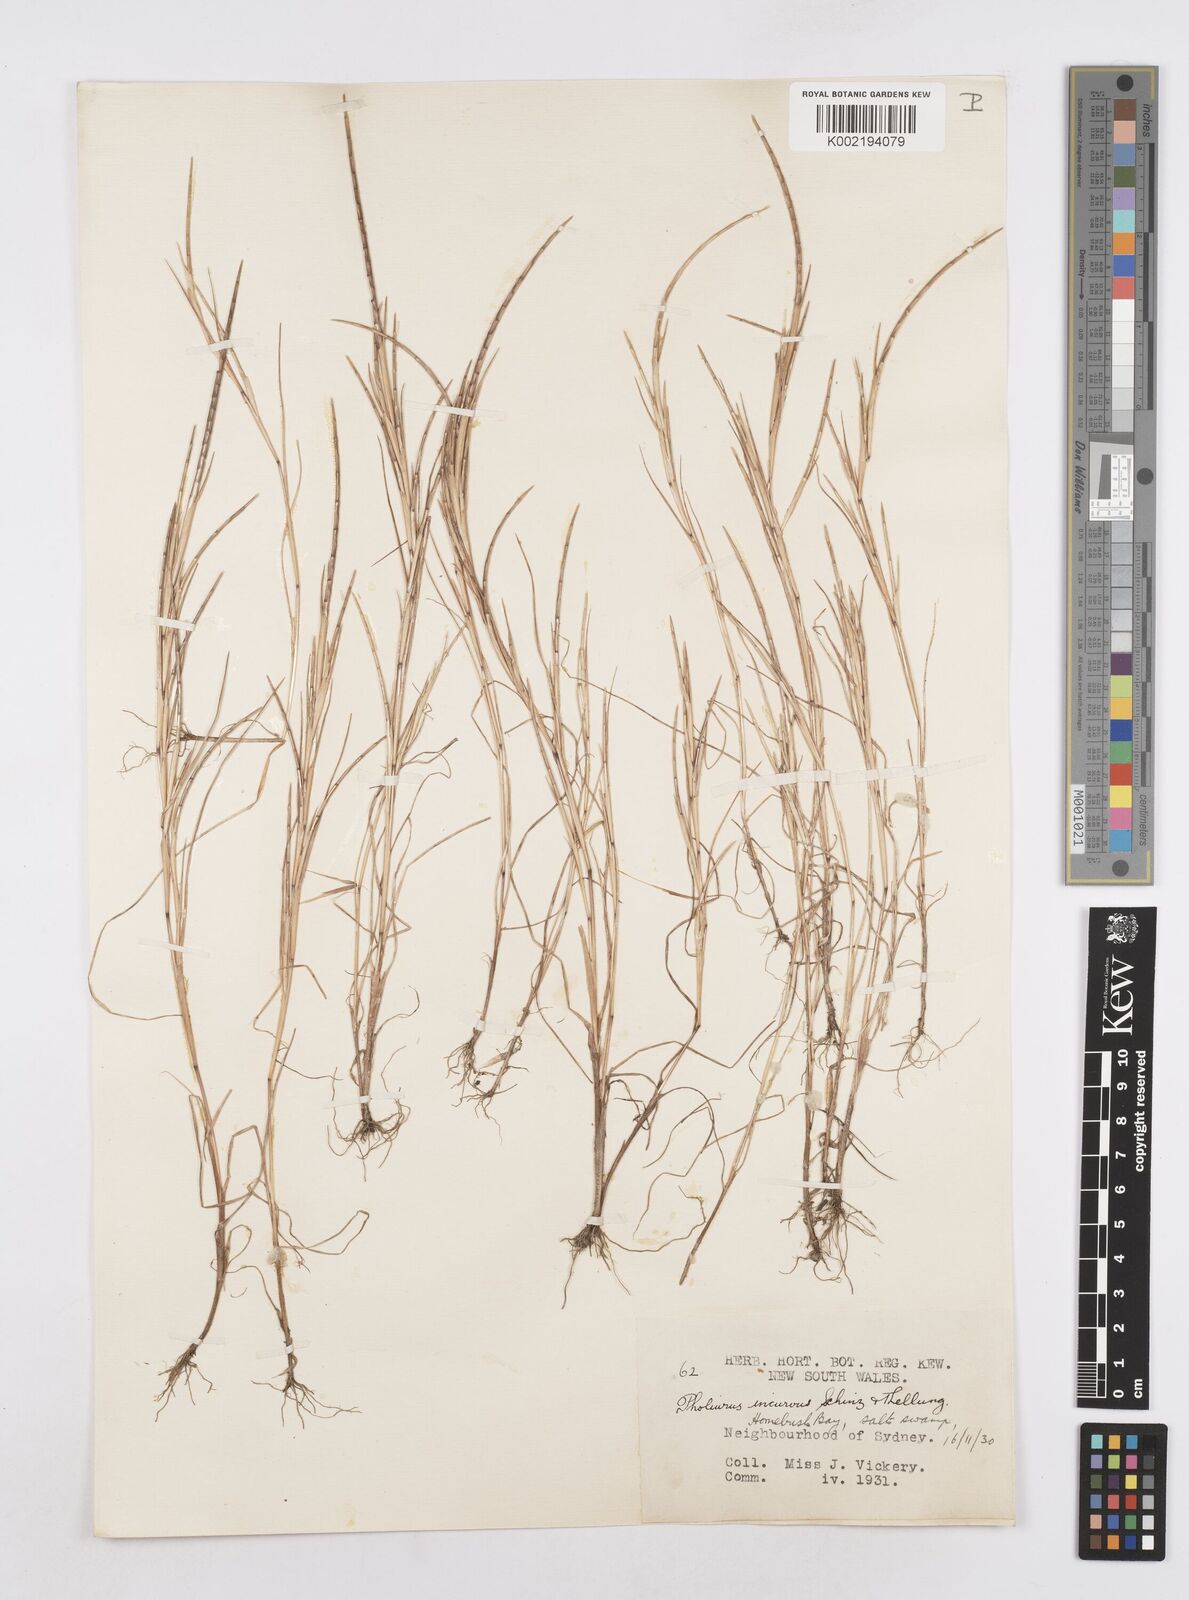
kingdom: Plantae
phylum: Tracheophyta
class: Liliopsida
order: Poales
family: Poaceae
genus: Parapholis
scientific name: Parapholis incurva
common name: Curved sicklegrass
